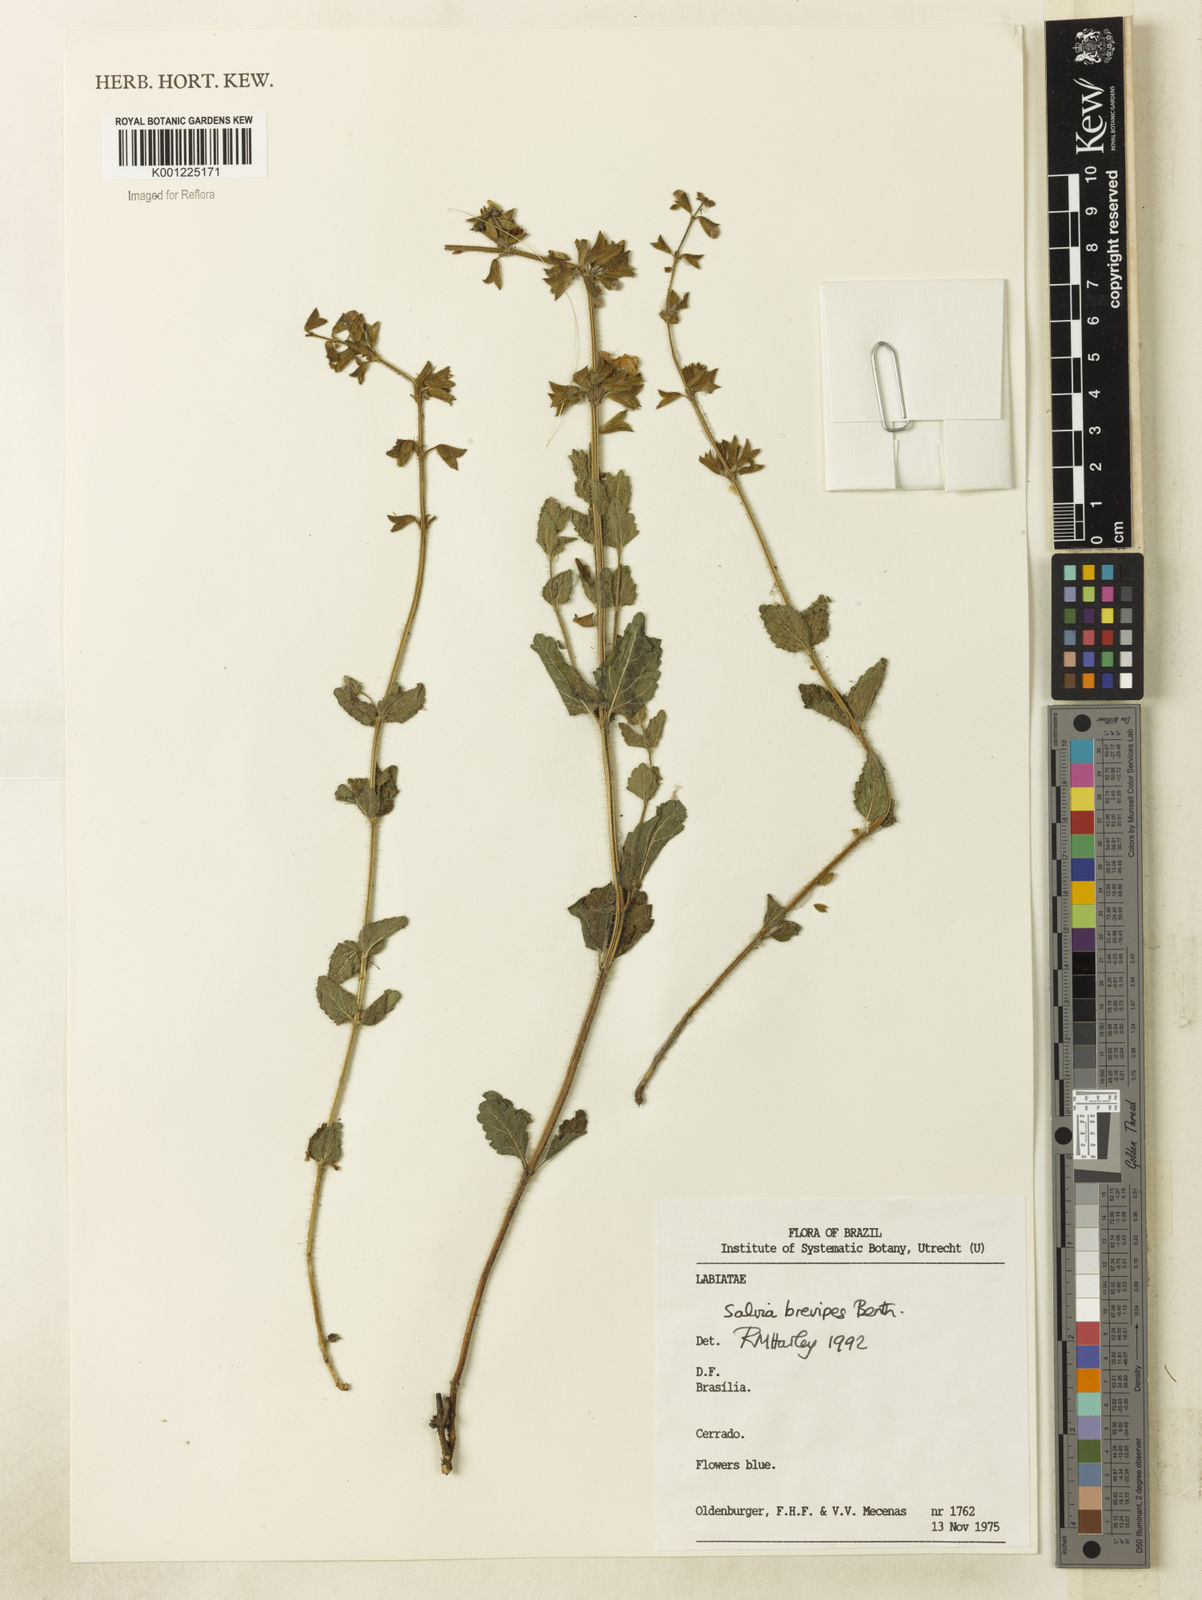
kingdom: Plantae
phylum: Tracheophyta
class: Magnoliopsida
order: Lamiales
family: Lamiaceae
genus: Salvia
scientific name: Salvia cerradicola
